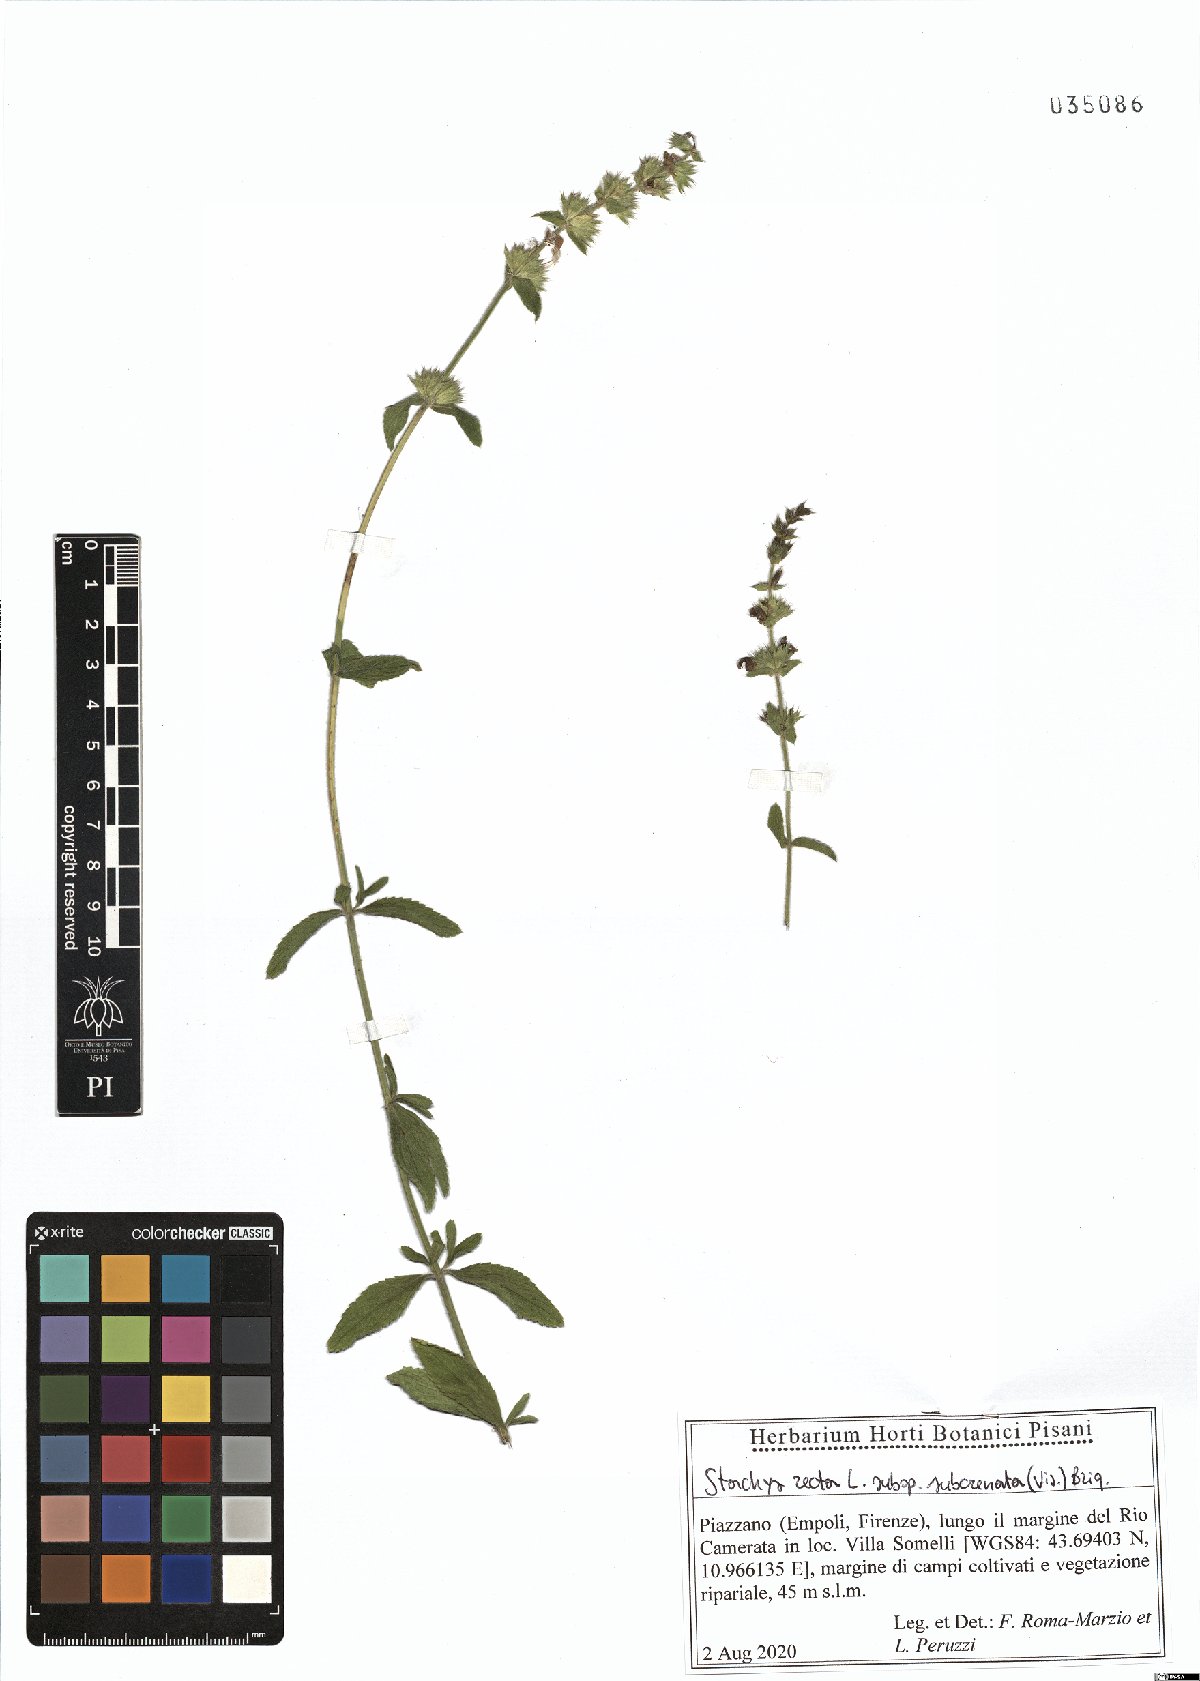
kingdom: Plantae
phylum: Tracheophyta
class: Magnoliopsida
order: Lamiales
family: Lamiaceae
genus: Stachys
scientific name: Stachys recta
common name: Perennial yellow-woundwort
